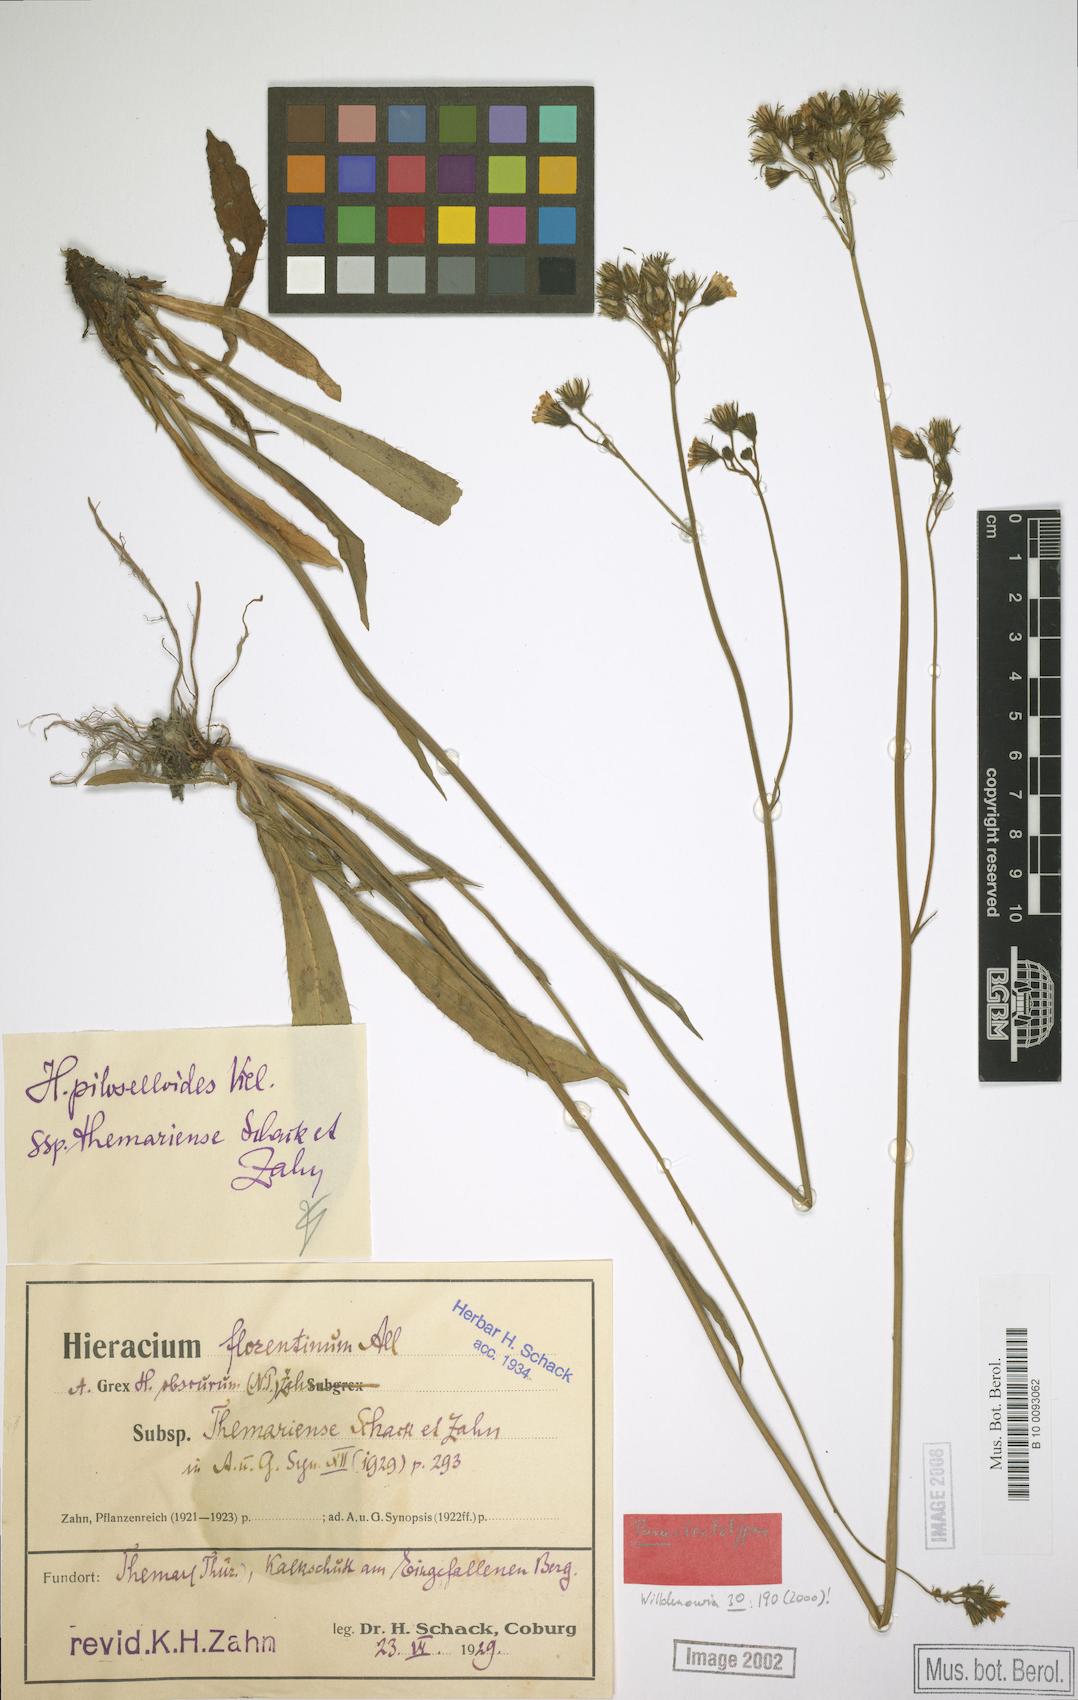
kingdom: Plantae
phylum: Tracheophyta
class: Magnoliopsida
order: Asterales
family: Asteraceae
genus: Pilosella
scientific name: Pilosella piloselloides
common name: Glaucous king-devil
